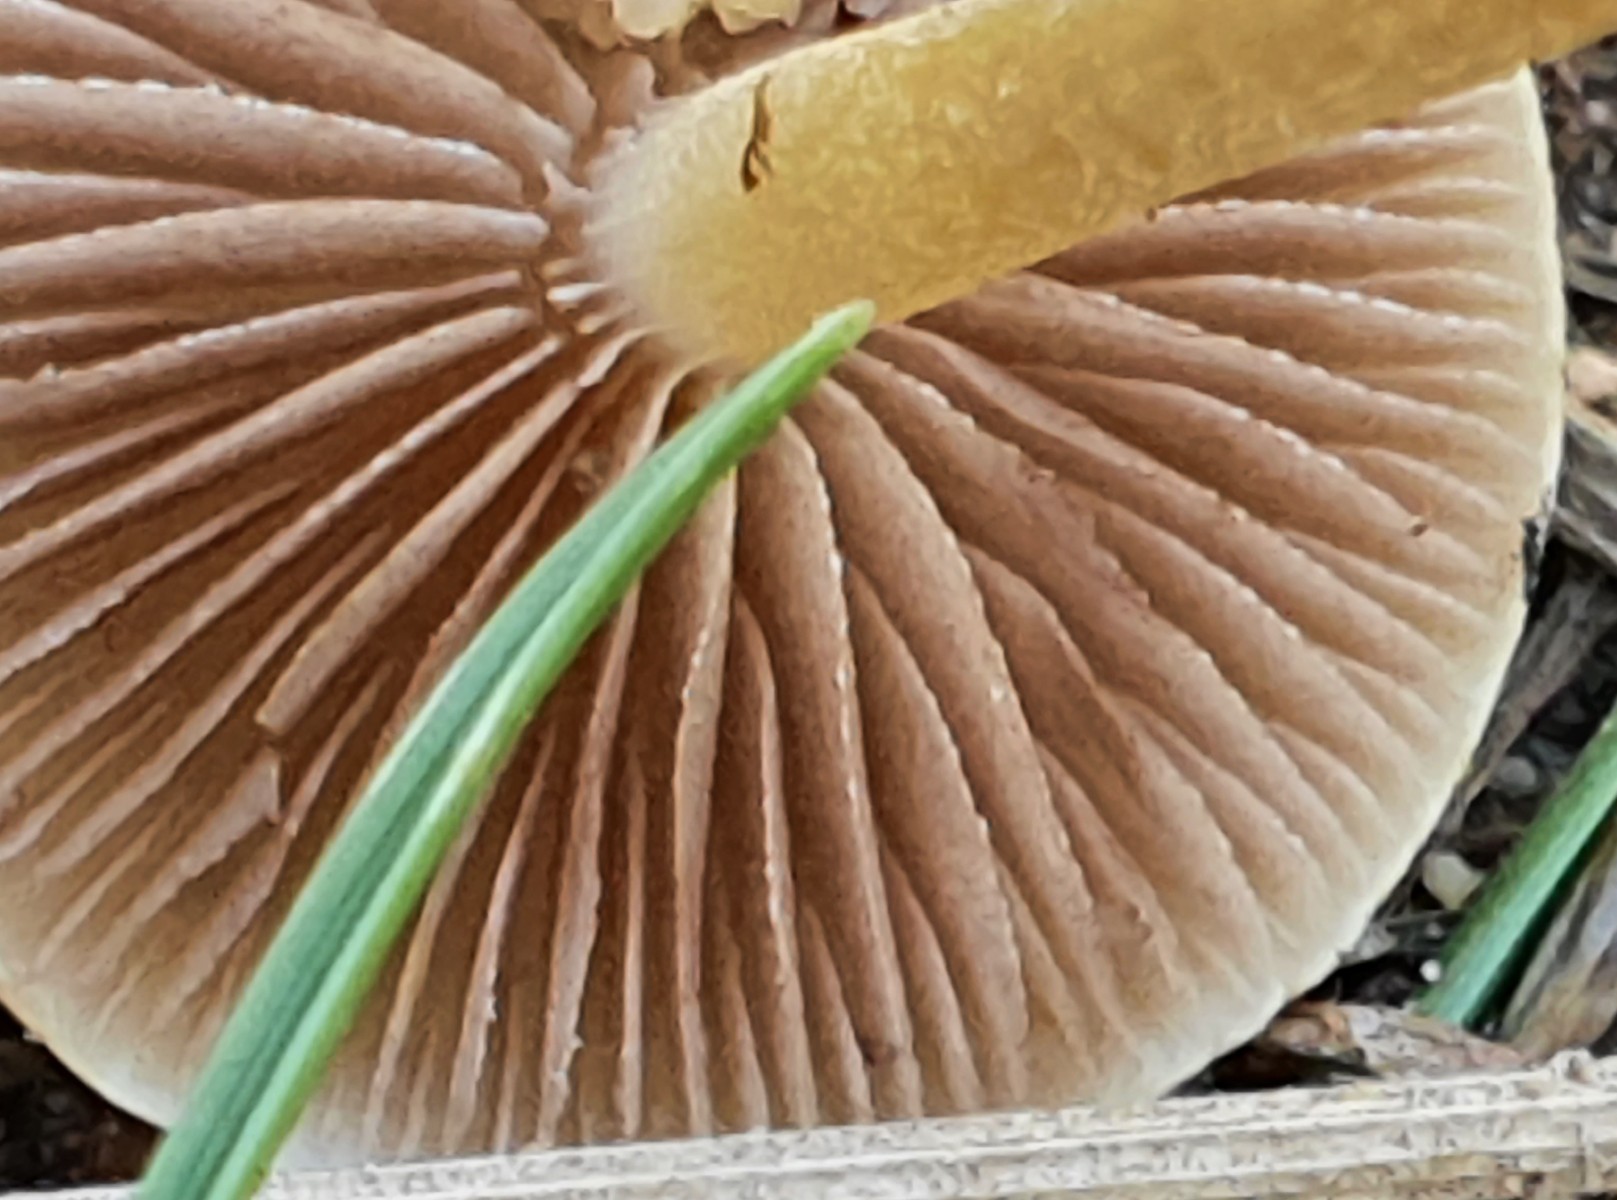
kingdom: Fungi
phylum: Basidiomycota
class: Agaricomycetes
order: Agaricales
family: Strophariaceae
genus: Agrocybe
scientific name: Agrocybe pediades
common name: almindelig agerhat
